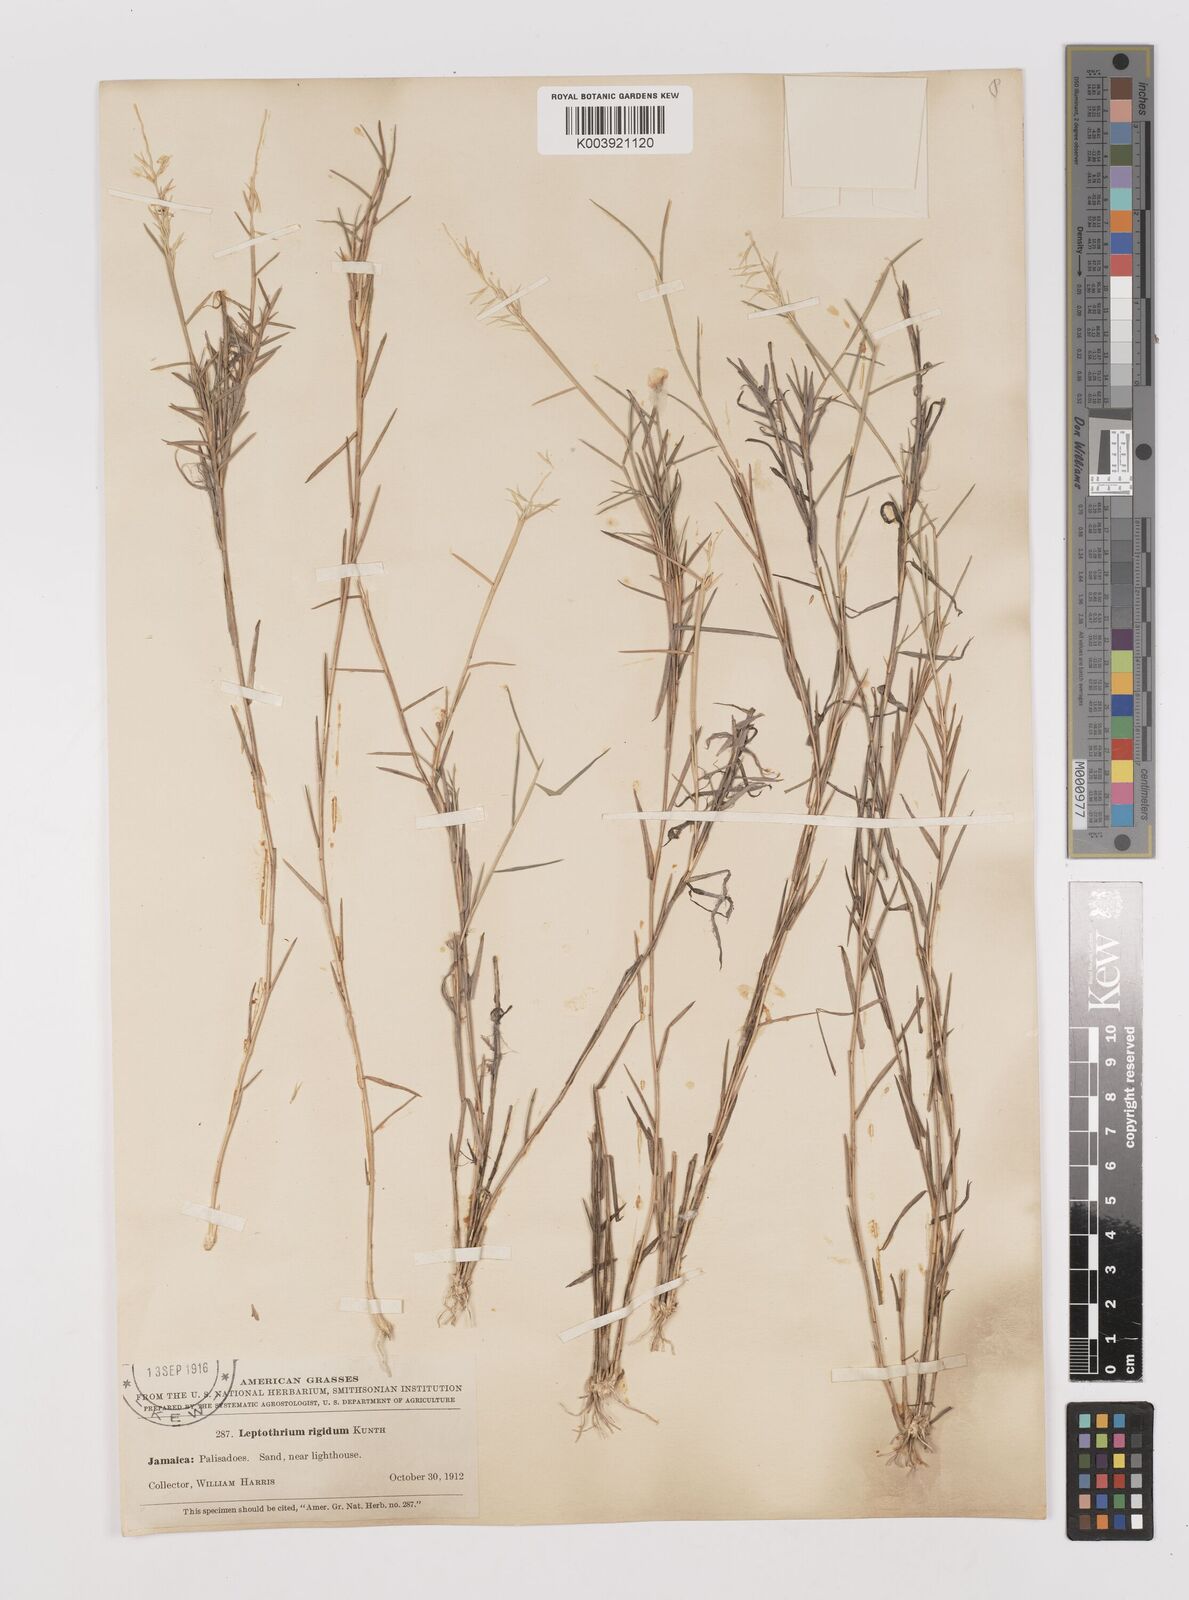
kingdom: Plantae
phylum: Tracheophyta
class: Liliopsida
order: Poales
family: Poaceae
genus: Leptothrium
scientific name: Leptothrium rigidum
